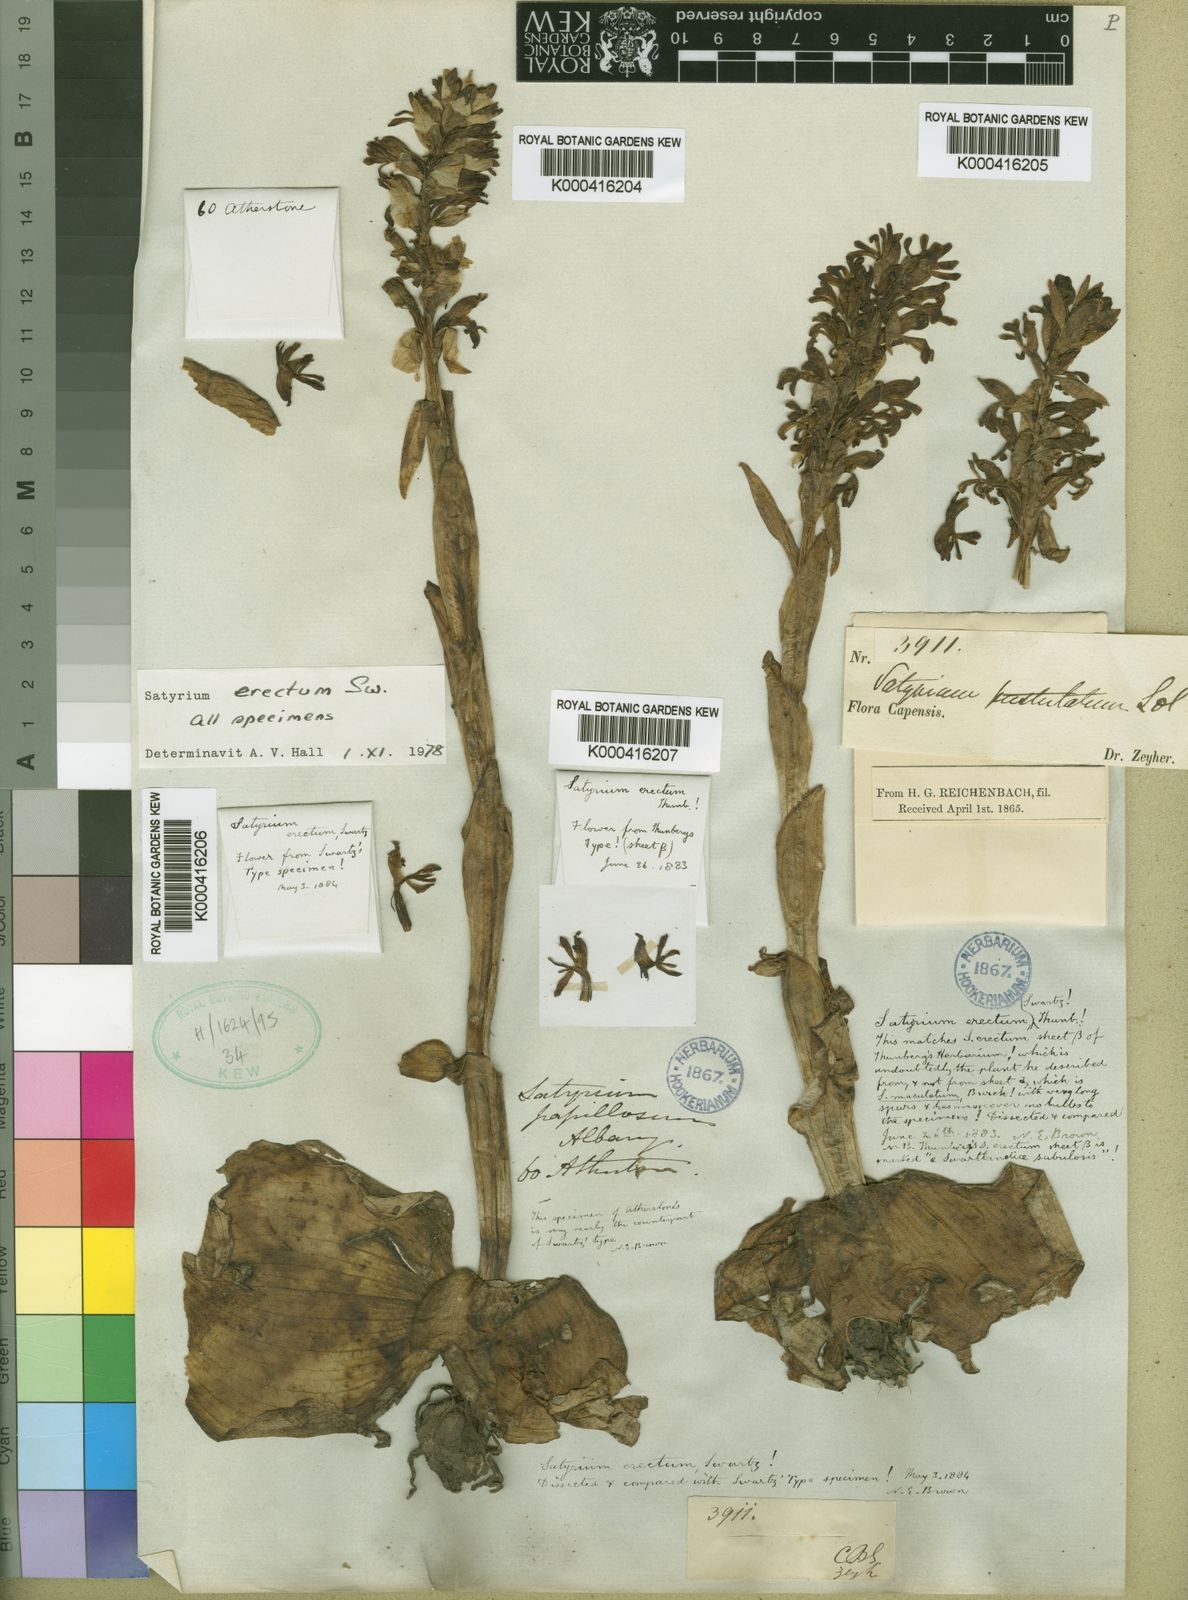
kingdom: Plantae
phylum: Tracheophyta
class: Liliopsida
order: Asparagales
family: Orchidaceae
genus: Satyrium
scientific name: Satyrium erectum
